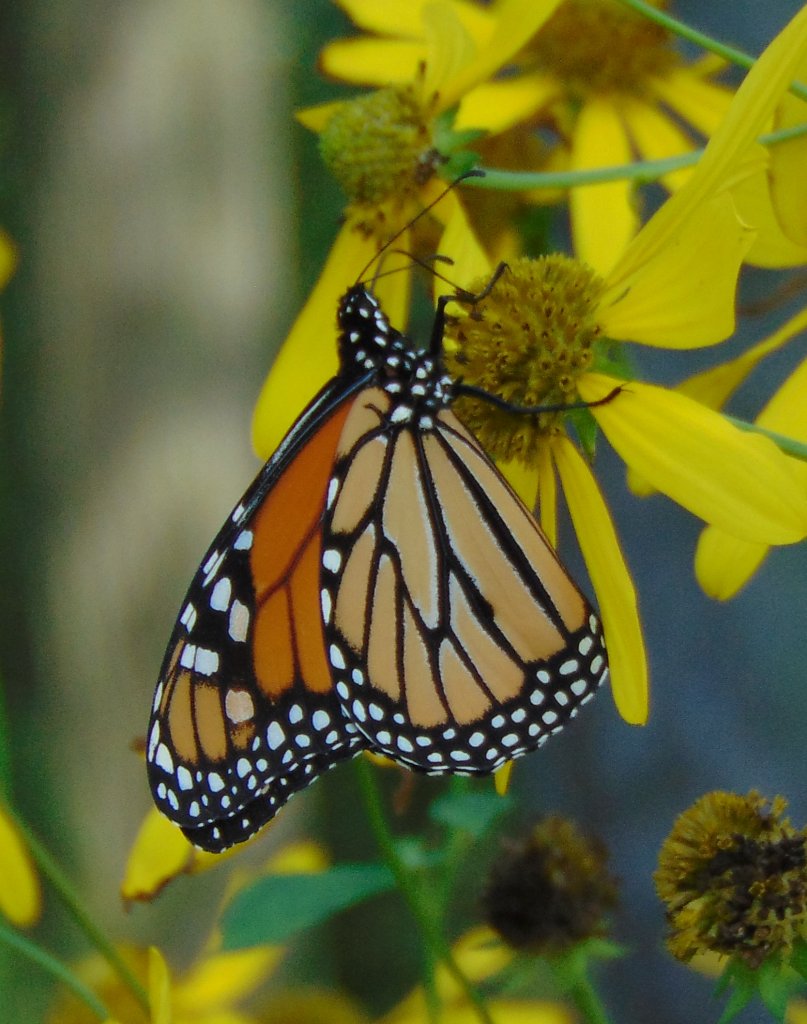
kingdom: Animalia
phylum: Arthropoda
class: Insecta
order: Lepidoptera
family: Nymphalidae
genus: Danaus
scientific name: Danaus plexippus
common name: Monarch
